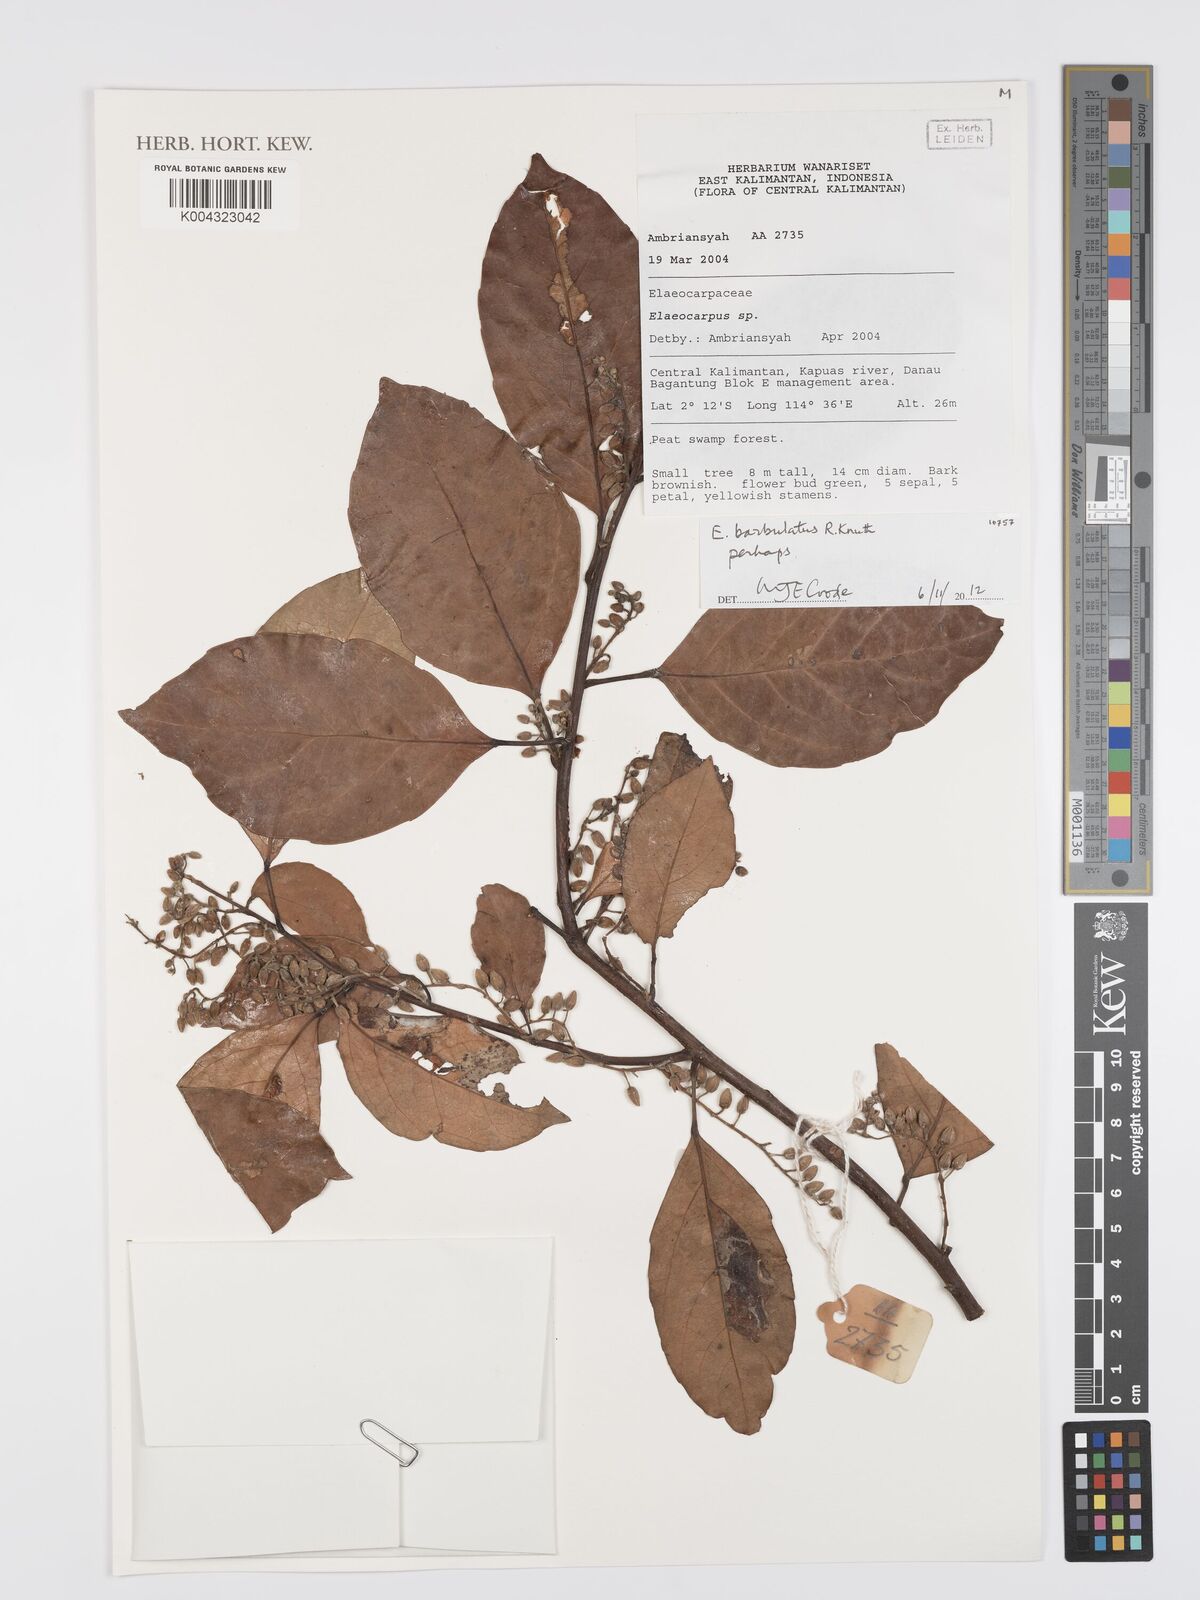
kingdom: Plantae
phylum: Tracheophyta
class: Magnoliopsida
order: Oxalidales
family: Elaeocarpaceae
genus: Elaeocarpus
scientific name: Elaeocarpus barbulatus
